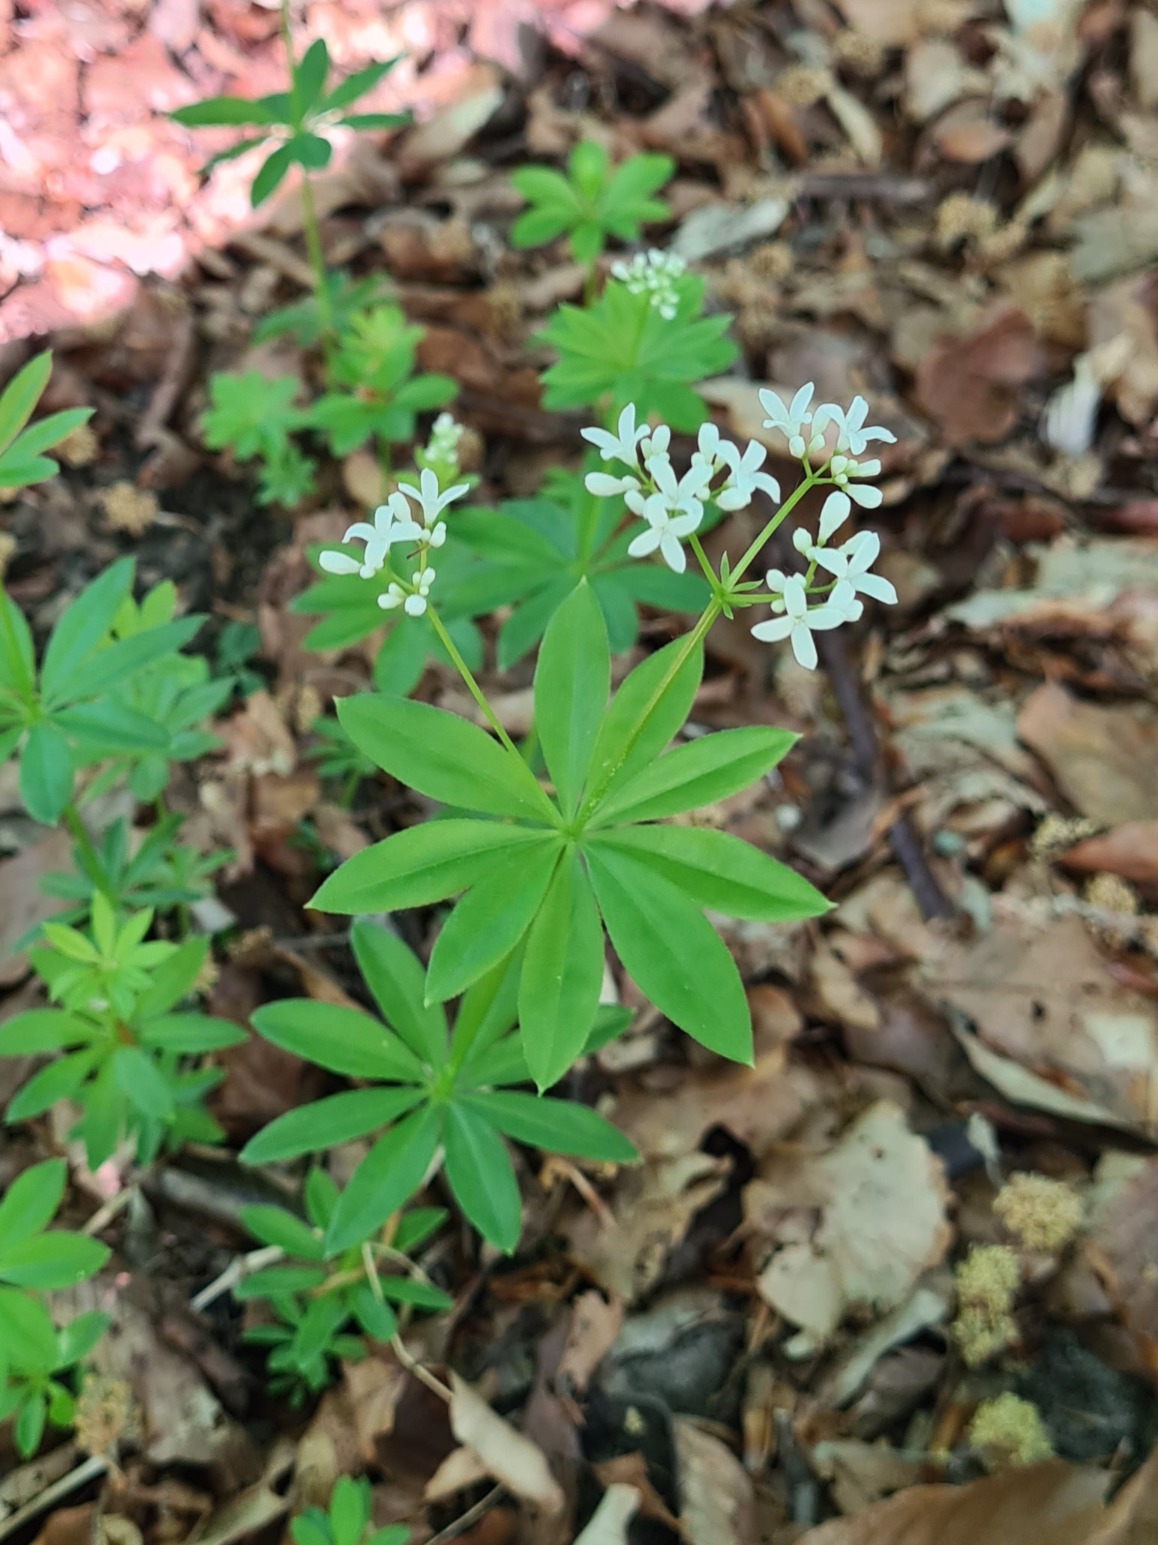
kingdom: Plantae
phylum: Tracheophyta
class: Magnoliopsida
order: Gentianales
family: Rubiaceae
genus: Galium
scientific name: Galium odoratum
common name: Skovmærke
